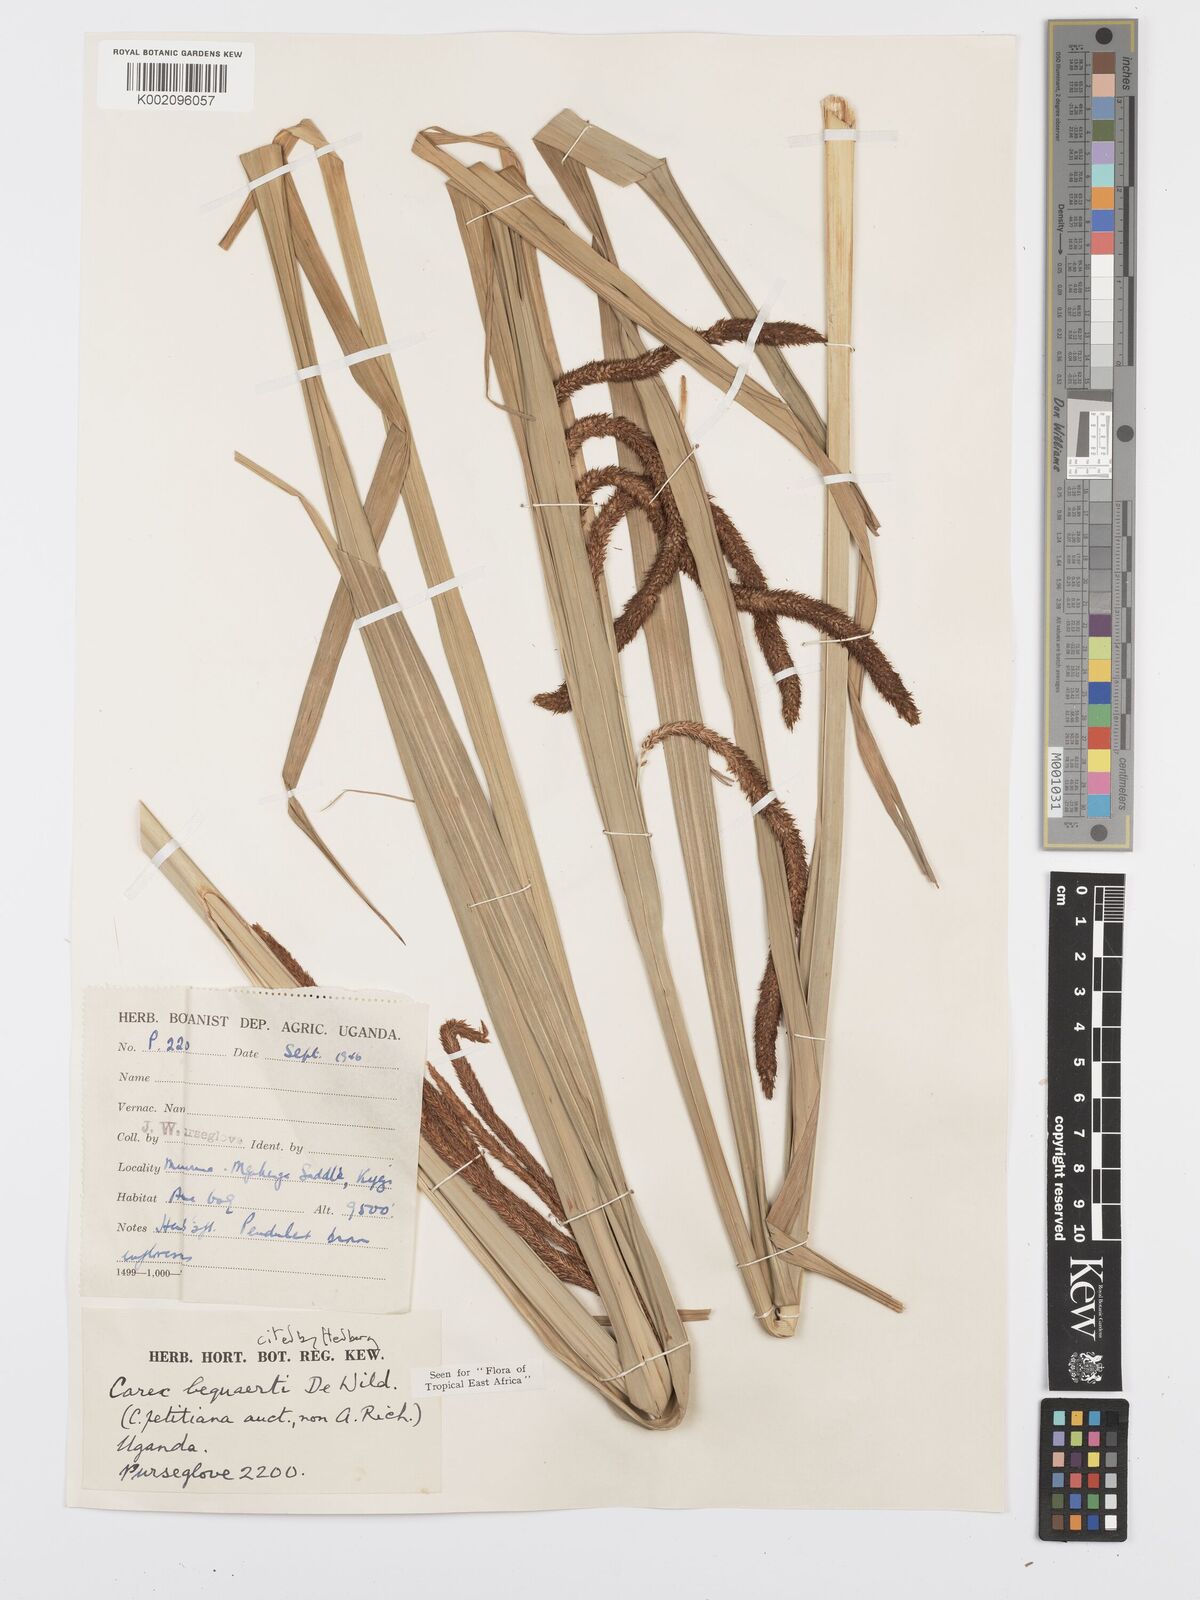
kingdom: Plantae
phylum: Tracheophyta
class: Liliopsida
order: Poales
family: Cyperaceae
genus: Carex
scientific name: Carex bequaertii
